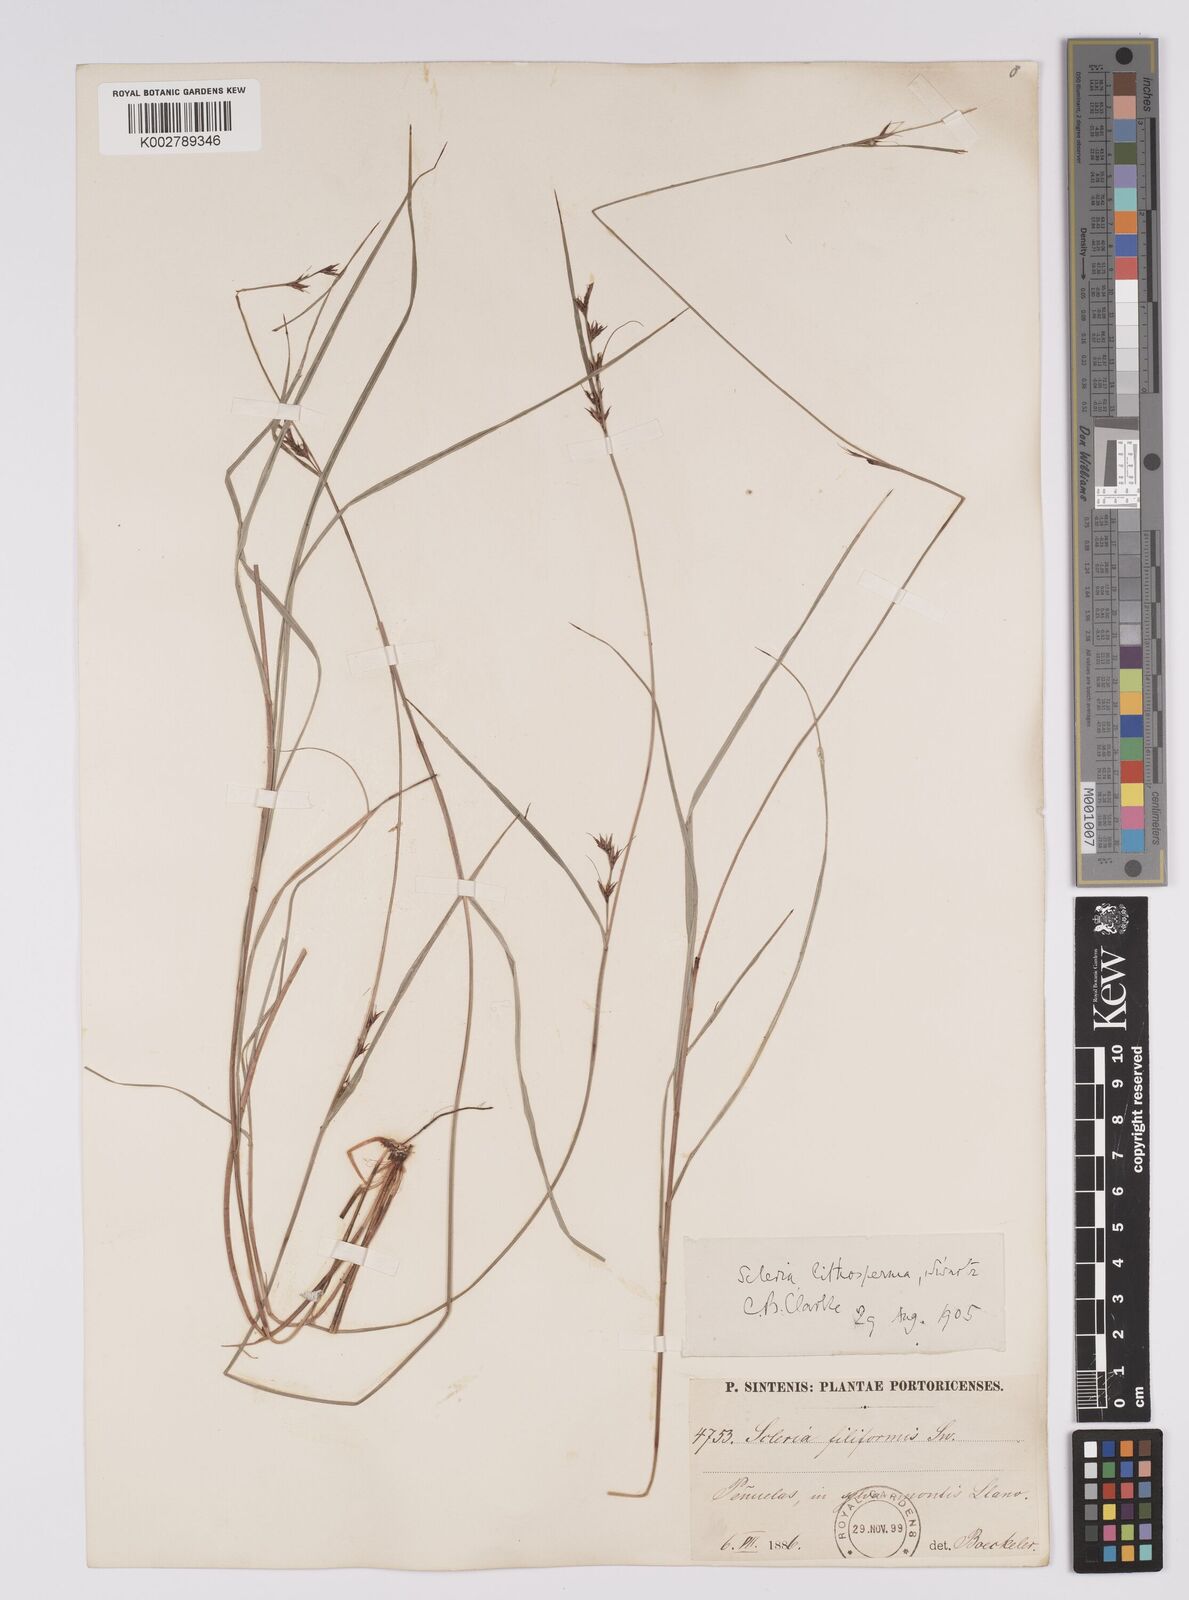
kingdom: Plantae
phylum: Tracheophyta
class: Liliopsida
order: Poales
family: Cyperaceae
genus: Scleria
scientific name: Scleria lithosperma
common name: Florida keys nut-rush
